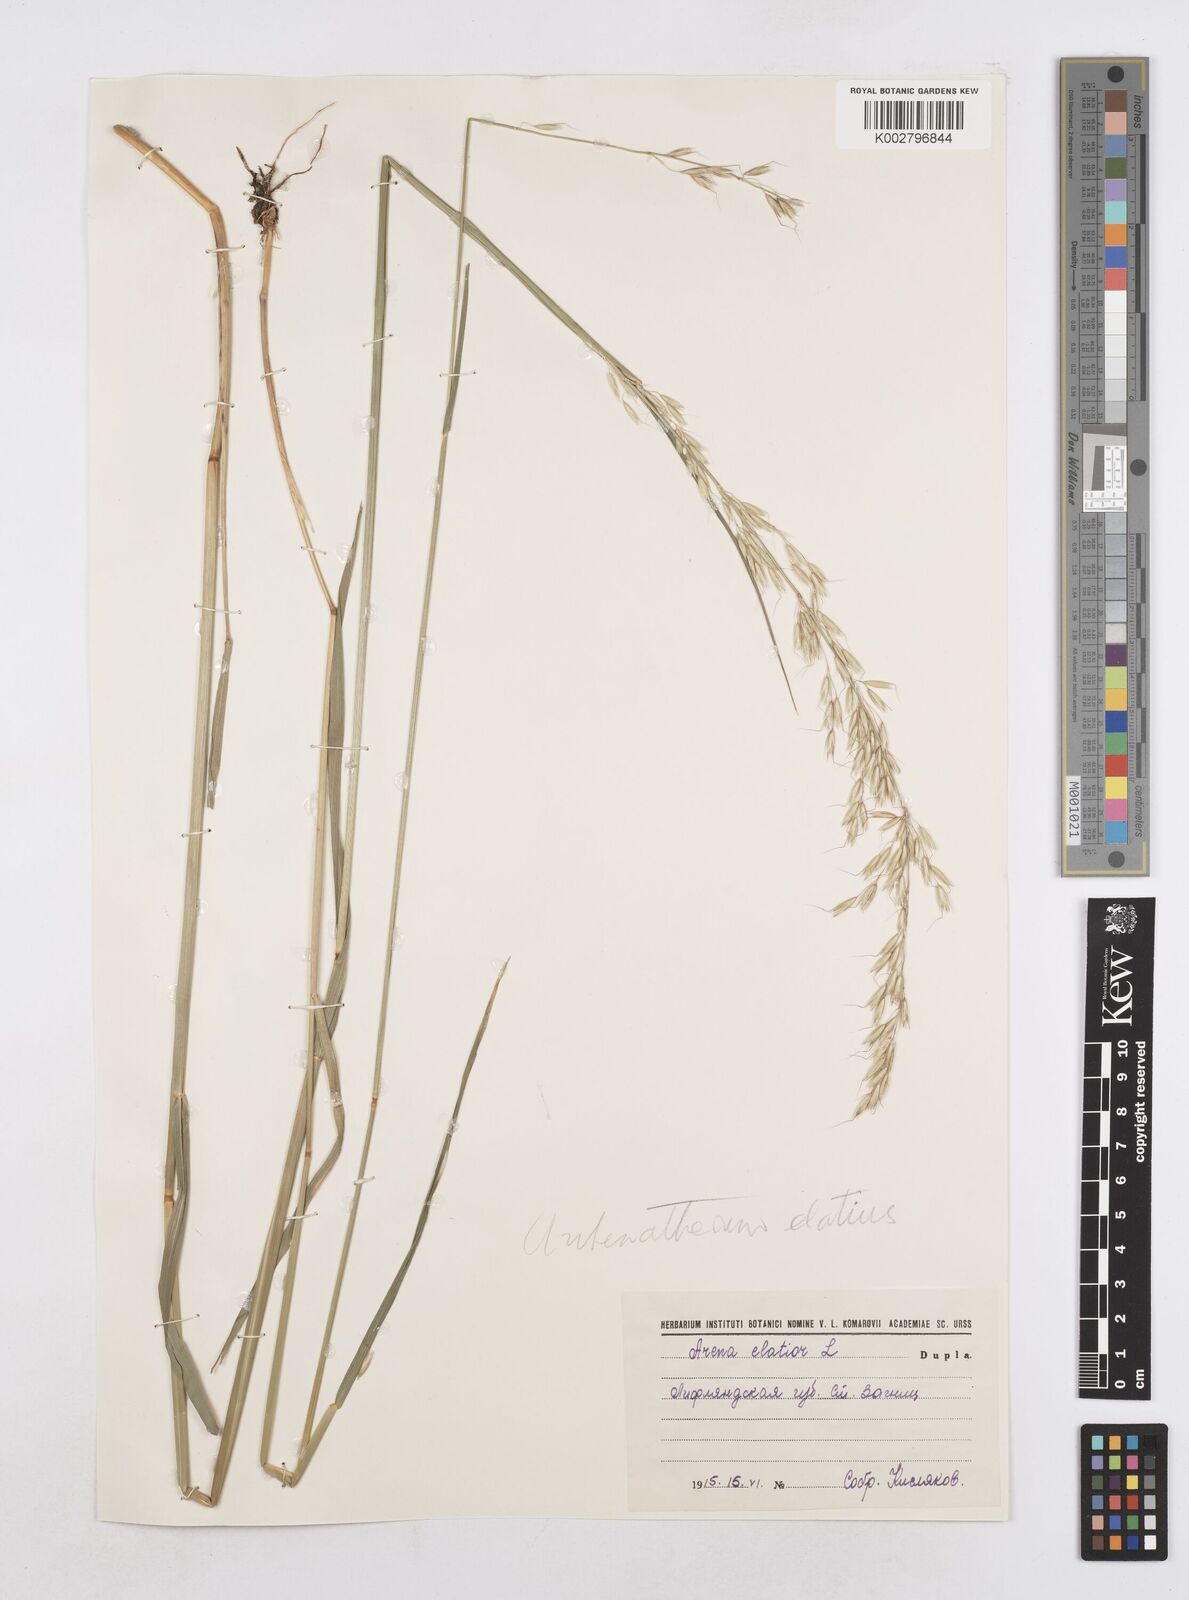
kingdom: Plantae
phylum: Tracheophyta
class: Liliopsida
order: Poales
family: Poaceae
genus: Arrhenatherum
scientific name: Arrhenatherum elatius
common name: Tall oatgrass
